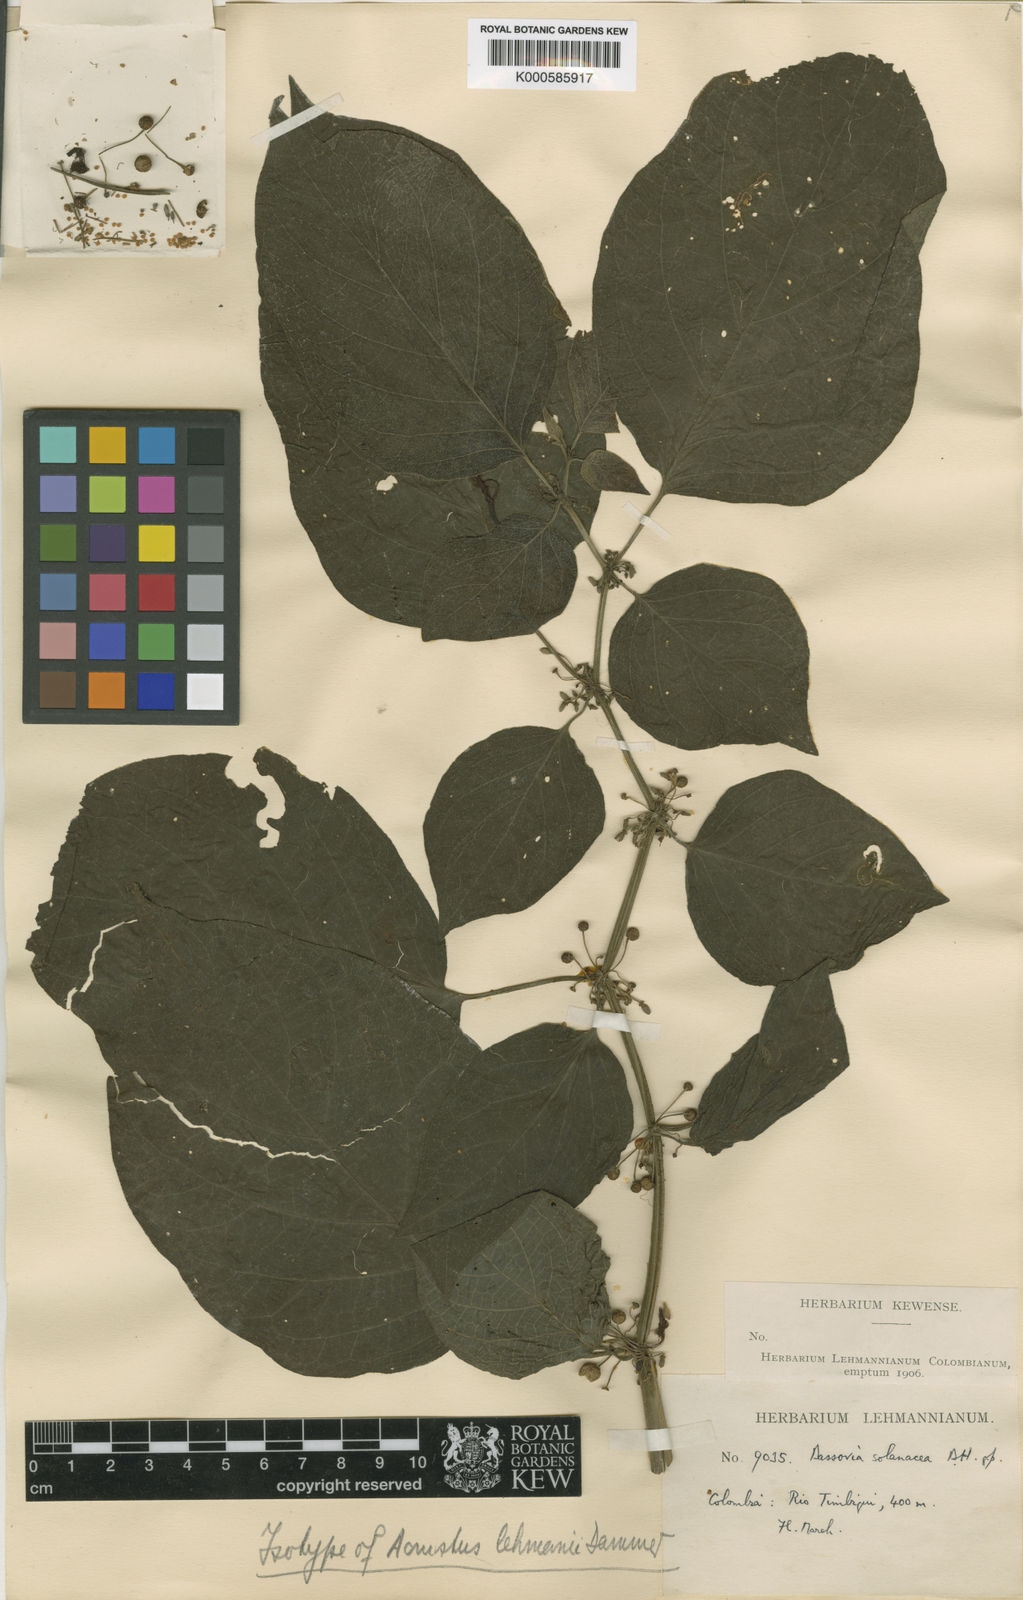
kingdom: Plantae
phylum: Tracheophyta
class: Magnoliopsida
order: Solanales
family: Solanaceae
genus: Witheringia
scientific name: Witheringia
